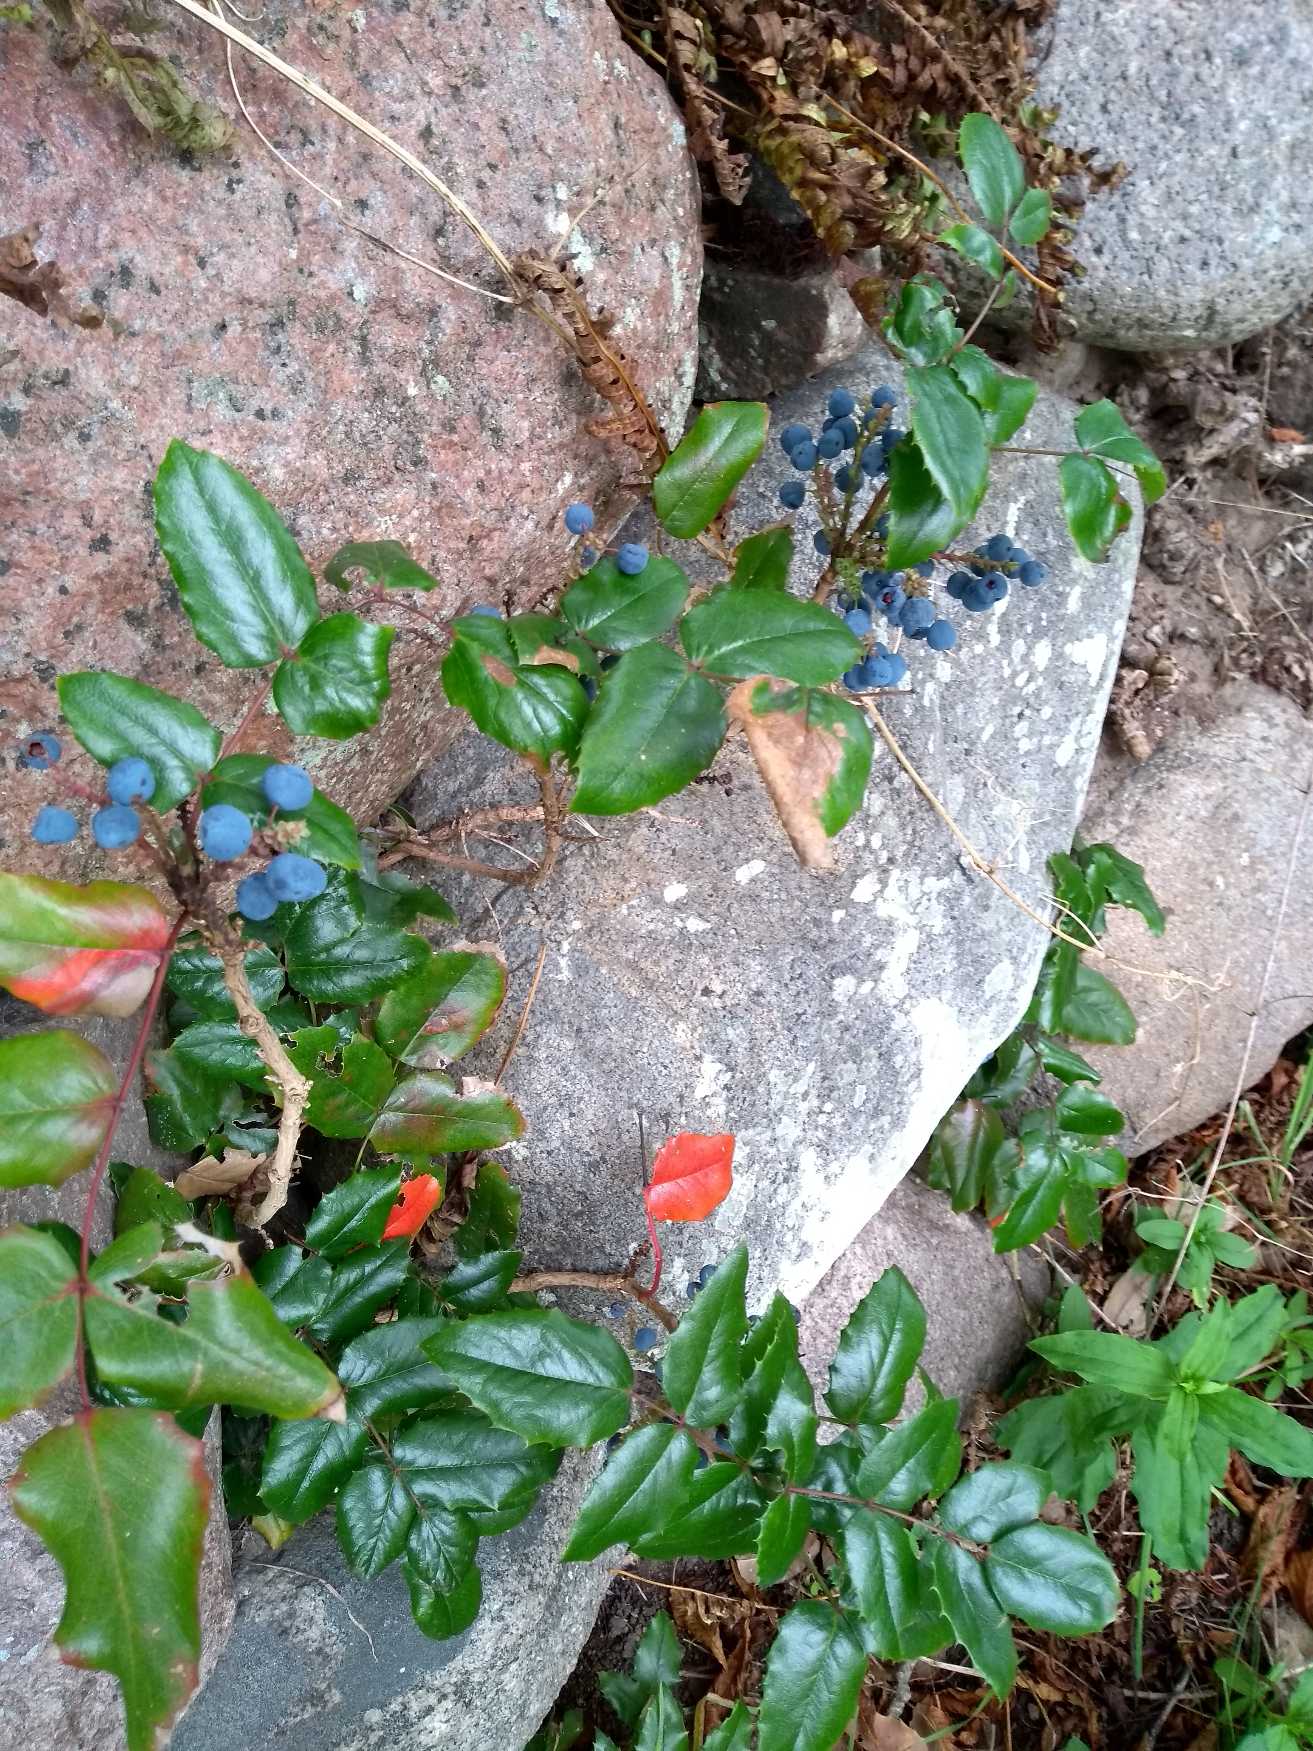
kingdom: Plantae
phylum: Tracheophyta
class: Magnoliopsida
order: Ranunculales
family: Berberidaceae
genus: Mahonia
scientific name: Mahonia aquifolium
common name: Almindelig mahonie
